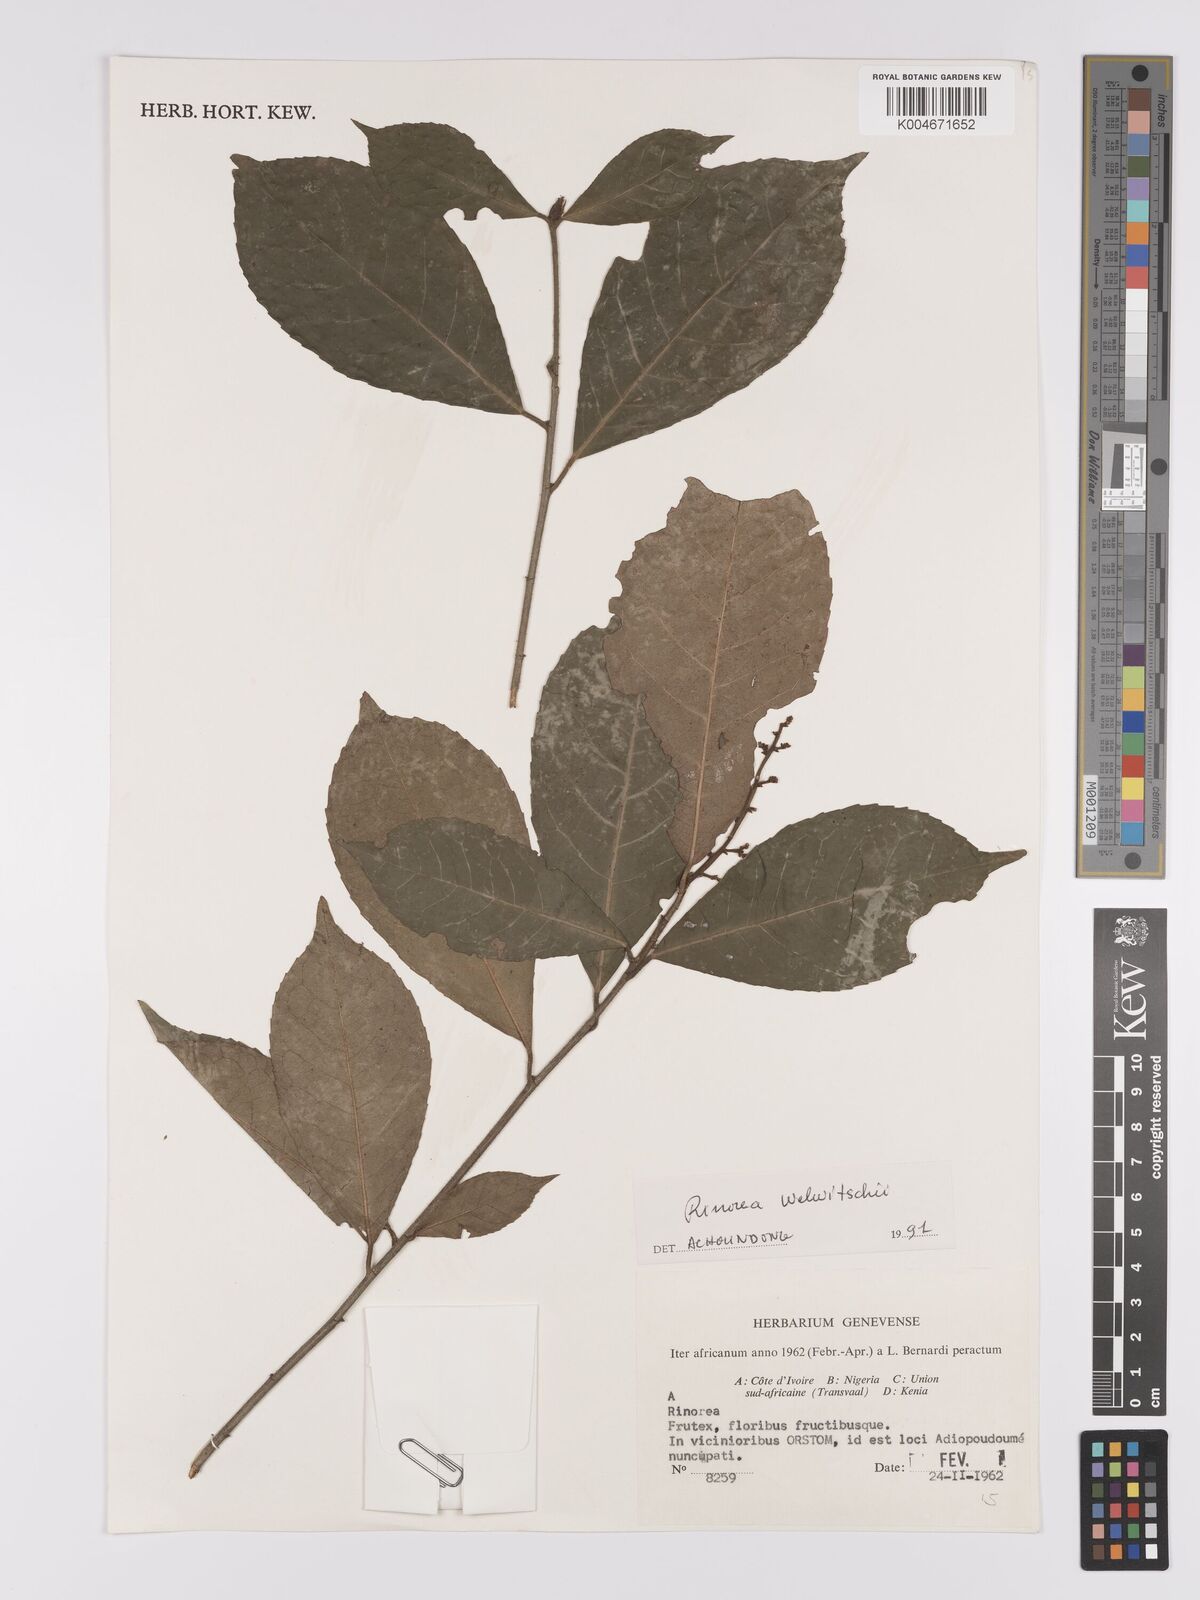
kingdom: Plantae
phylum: Tracheophyta
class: Magnoliopsida
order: Malpighiales
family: Violaceae
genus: Rinorea
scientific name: Rinorea welwitschii
